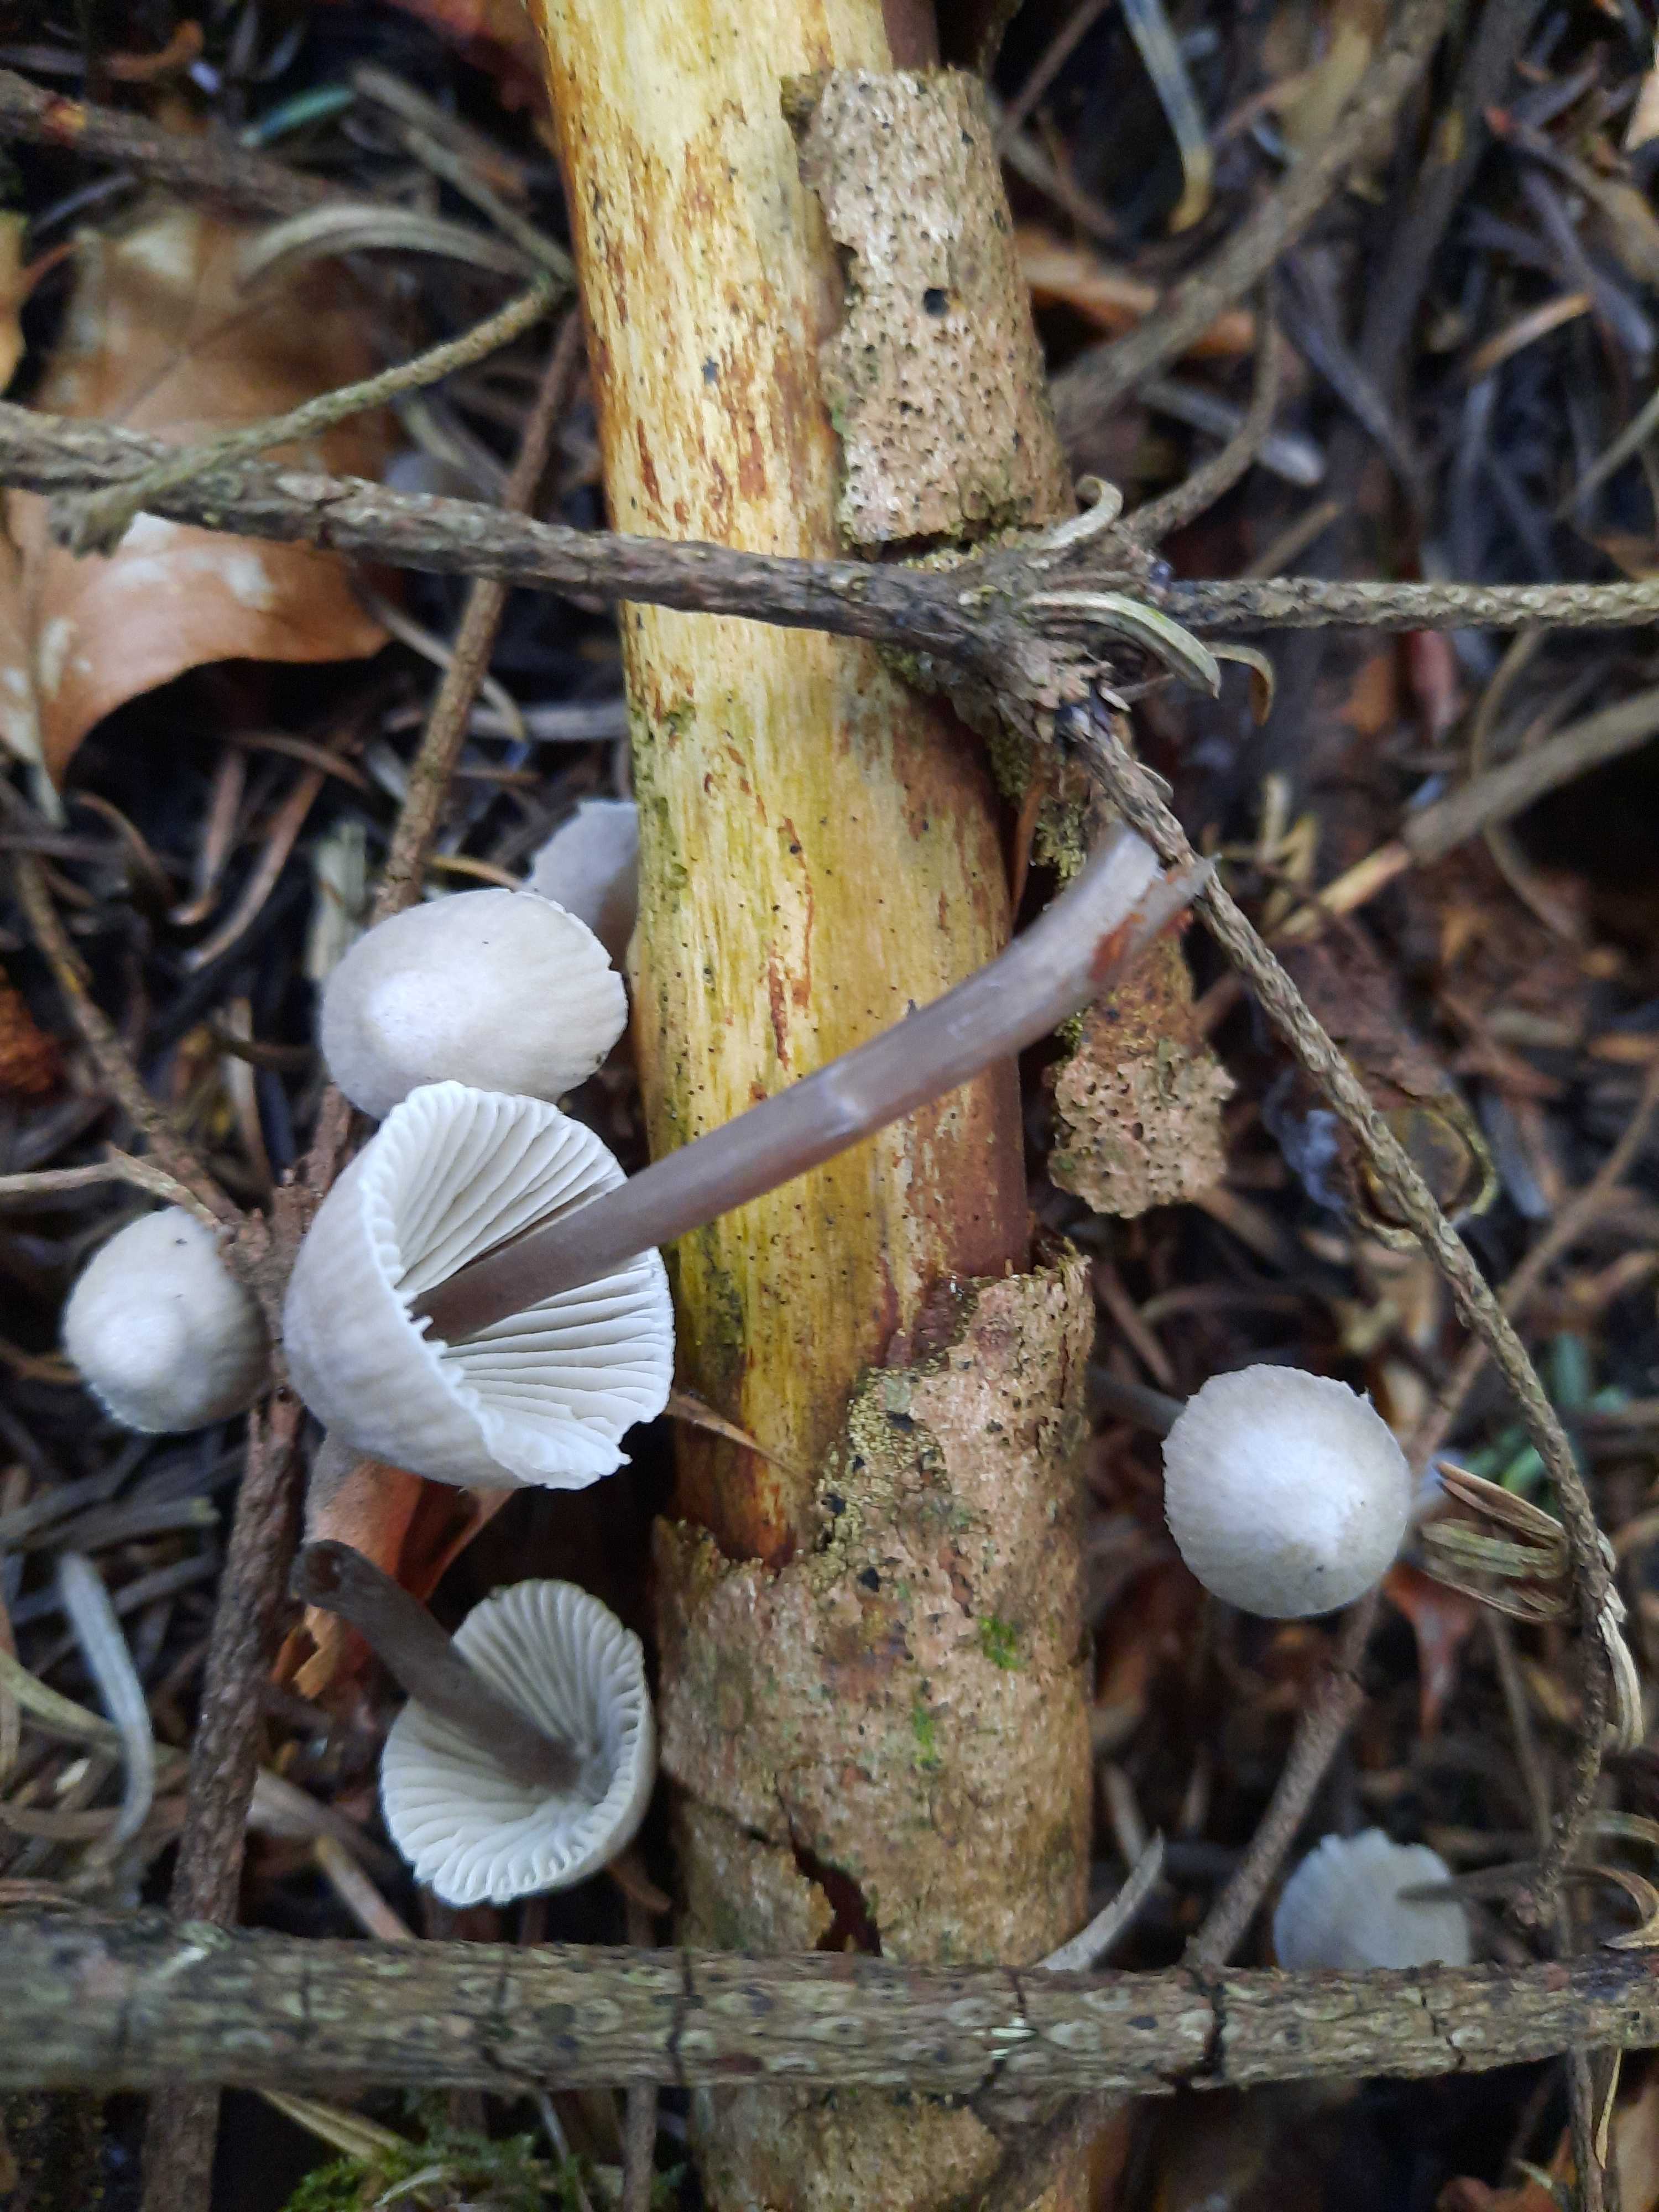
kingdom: Fungi
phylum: Basidiomycota
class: Agaricomycetes
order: Agaricales
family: Mycenaceae
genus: Mycena
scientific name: Mycena leptocephala
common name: klor-huesvamp
